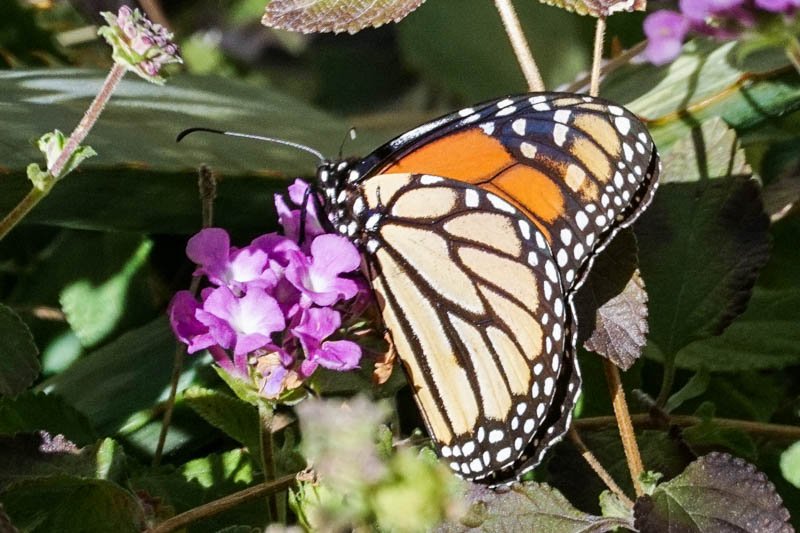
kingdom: Animalia
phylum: Arthropoda
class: Insecta
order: Lepidoptera
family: Nymphalidae
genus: Danaus
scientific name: Danaus plexippus
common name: Monarch
